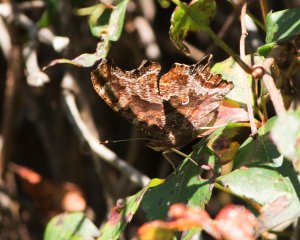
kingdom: Animalia
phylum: Arthropoda
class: Insecta
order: Lepidoptera
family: Nymphalidae
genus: Polygonia
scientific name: Polygonia comma
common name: Eastern Comma
